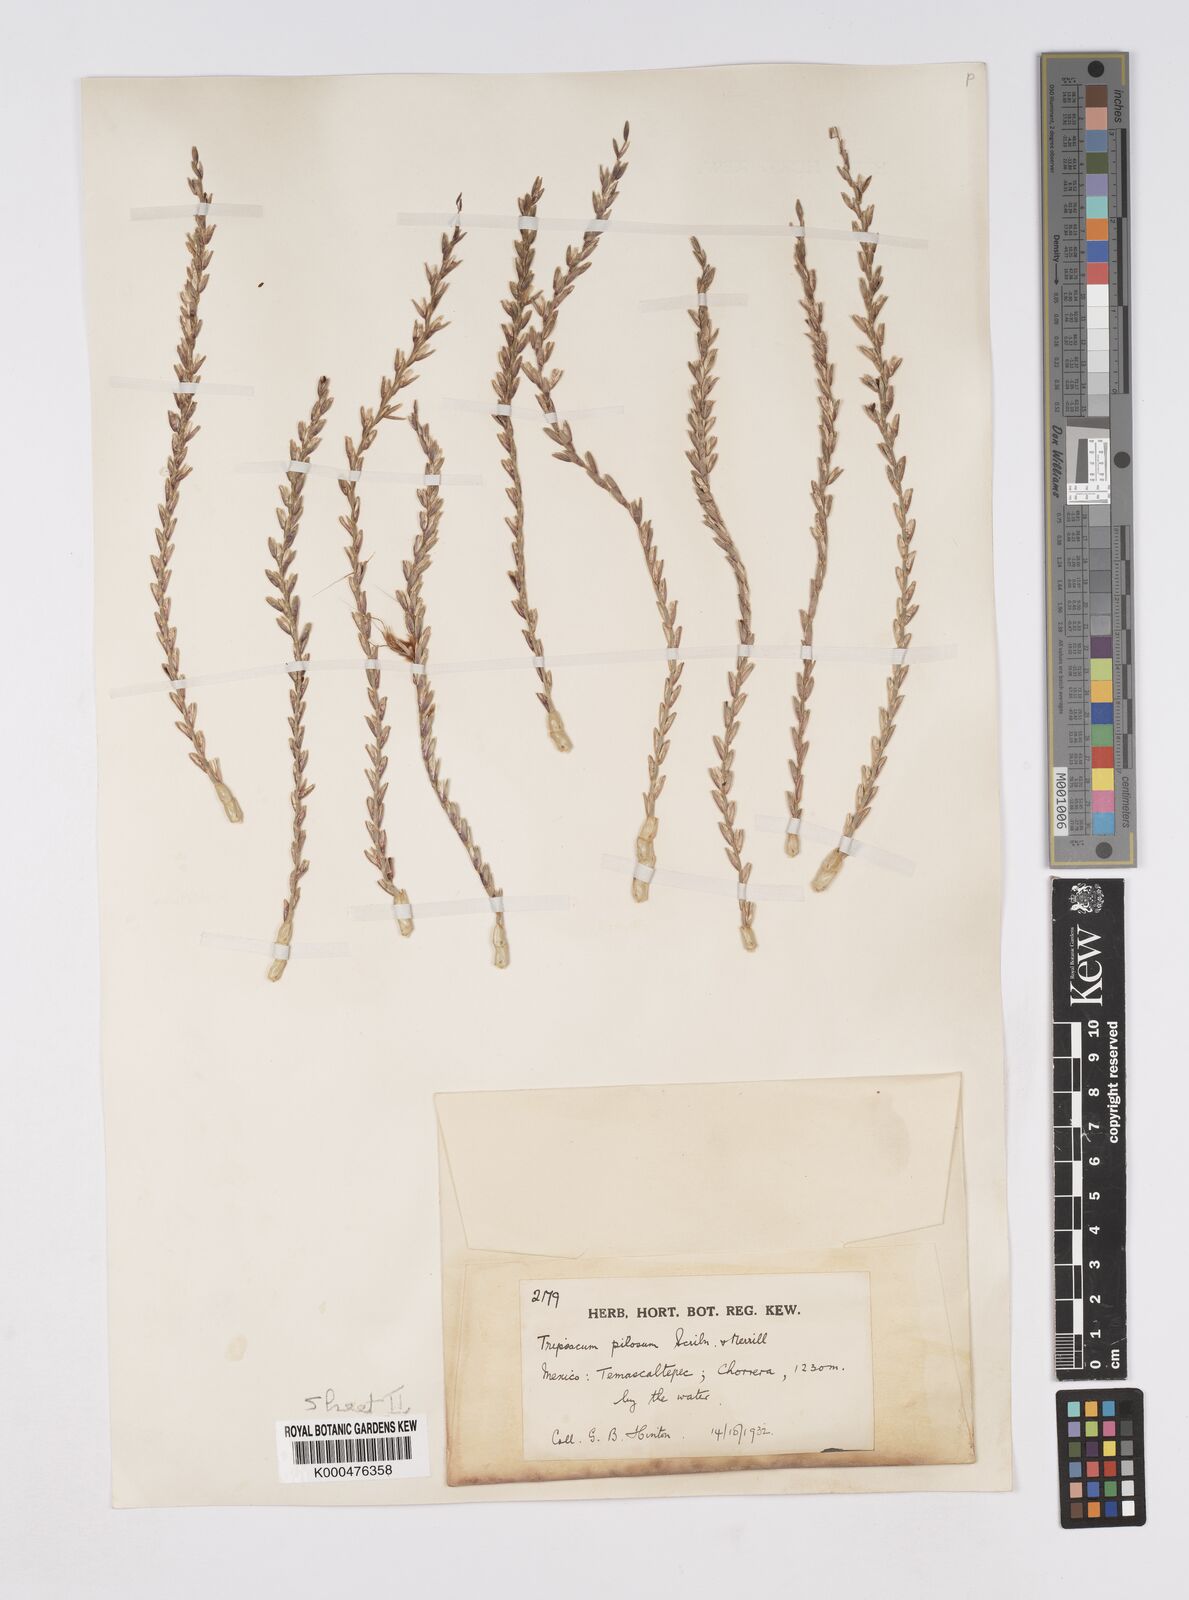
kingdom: Plantae
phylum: Tracheophyta
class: Liliopsida
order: Poales
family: Poaceae
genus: Tripsacum
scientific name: Tripsacum pilosum
